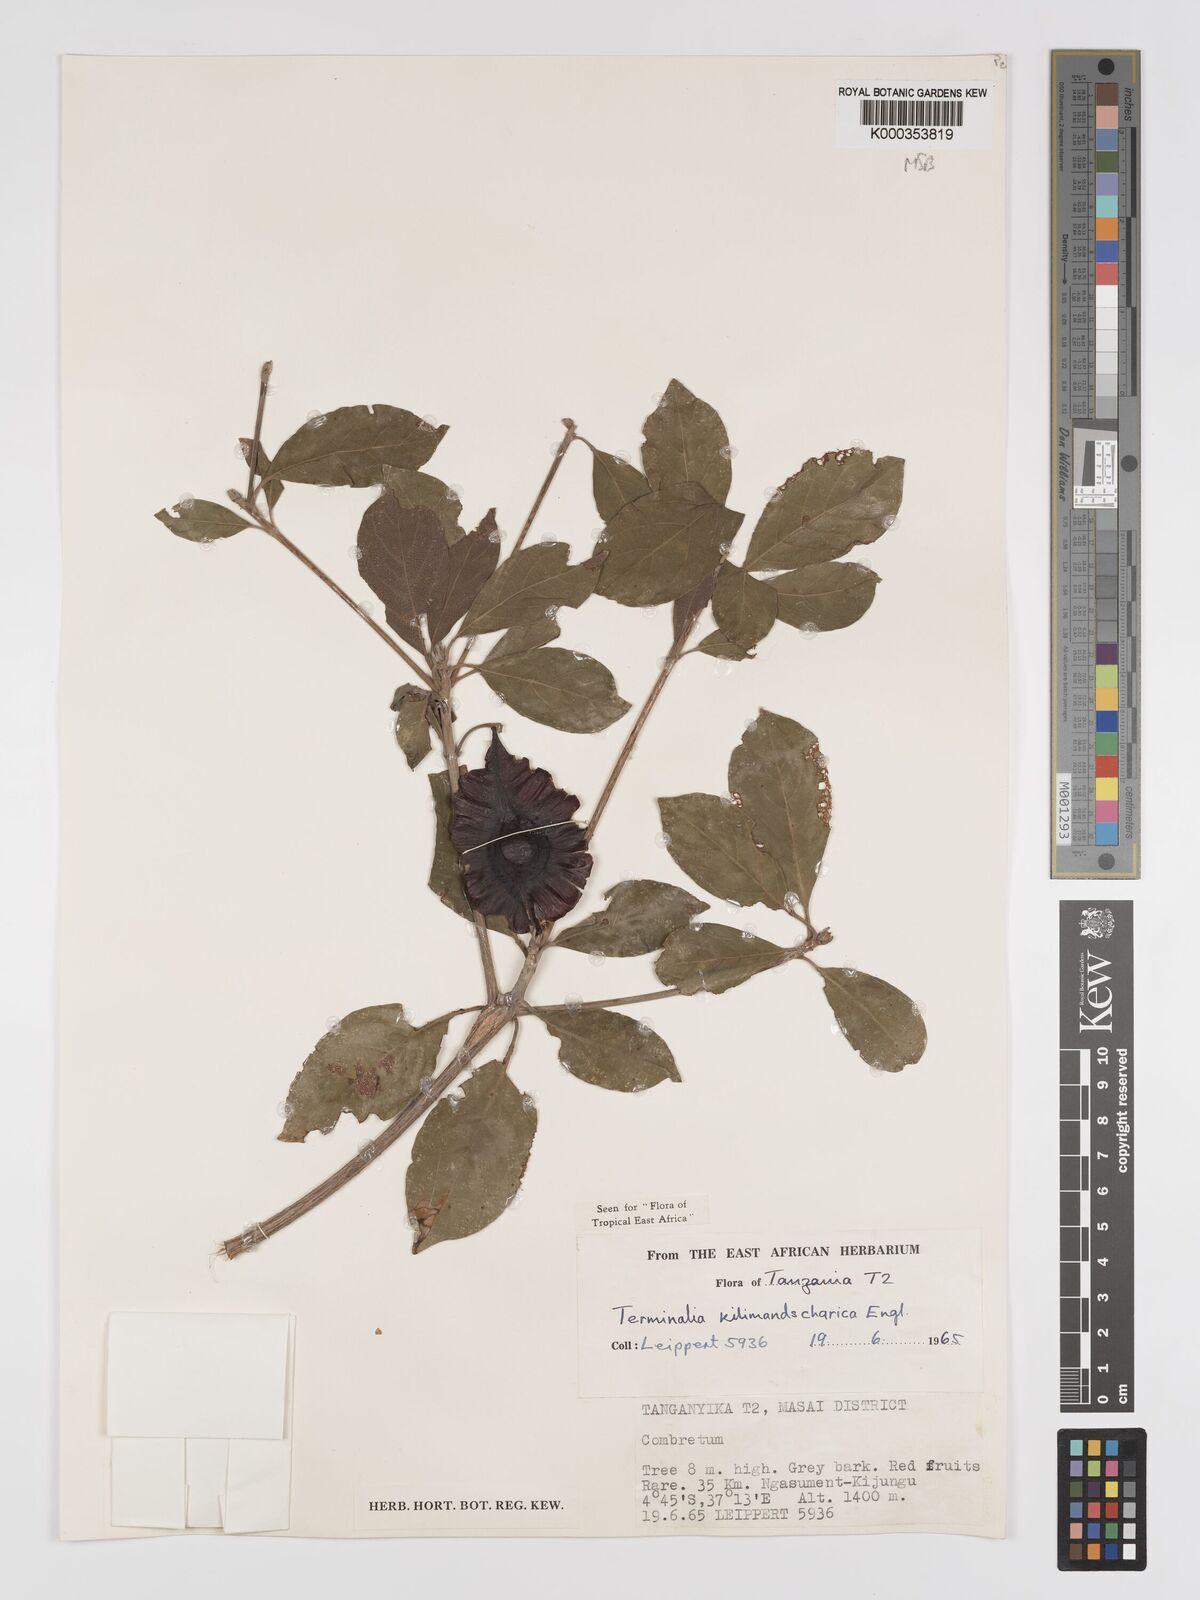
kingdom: Plantae
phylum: Tracheophyta
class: Magnoliopsida
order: Myrtales
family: Combretaceae
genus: Terminalia
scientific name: Terminalia kilimandscharica
